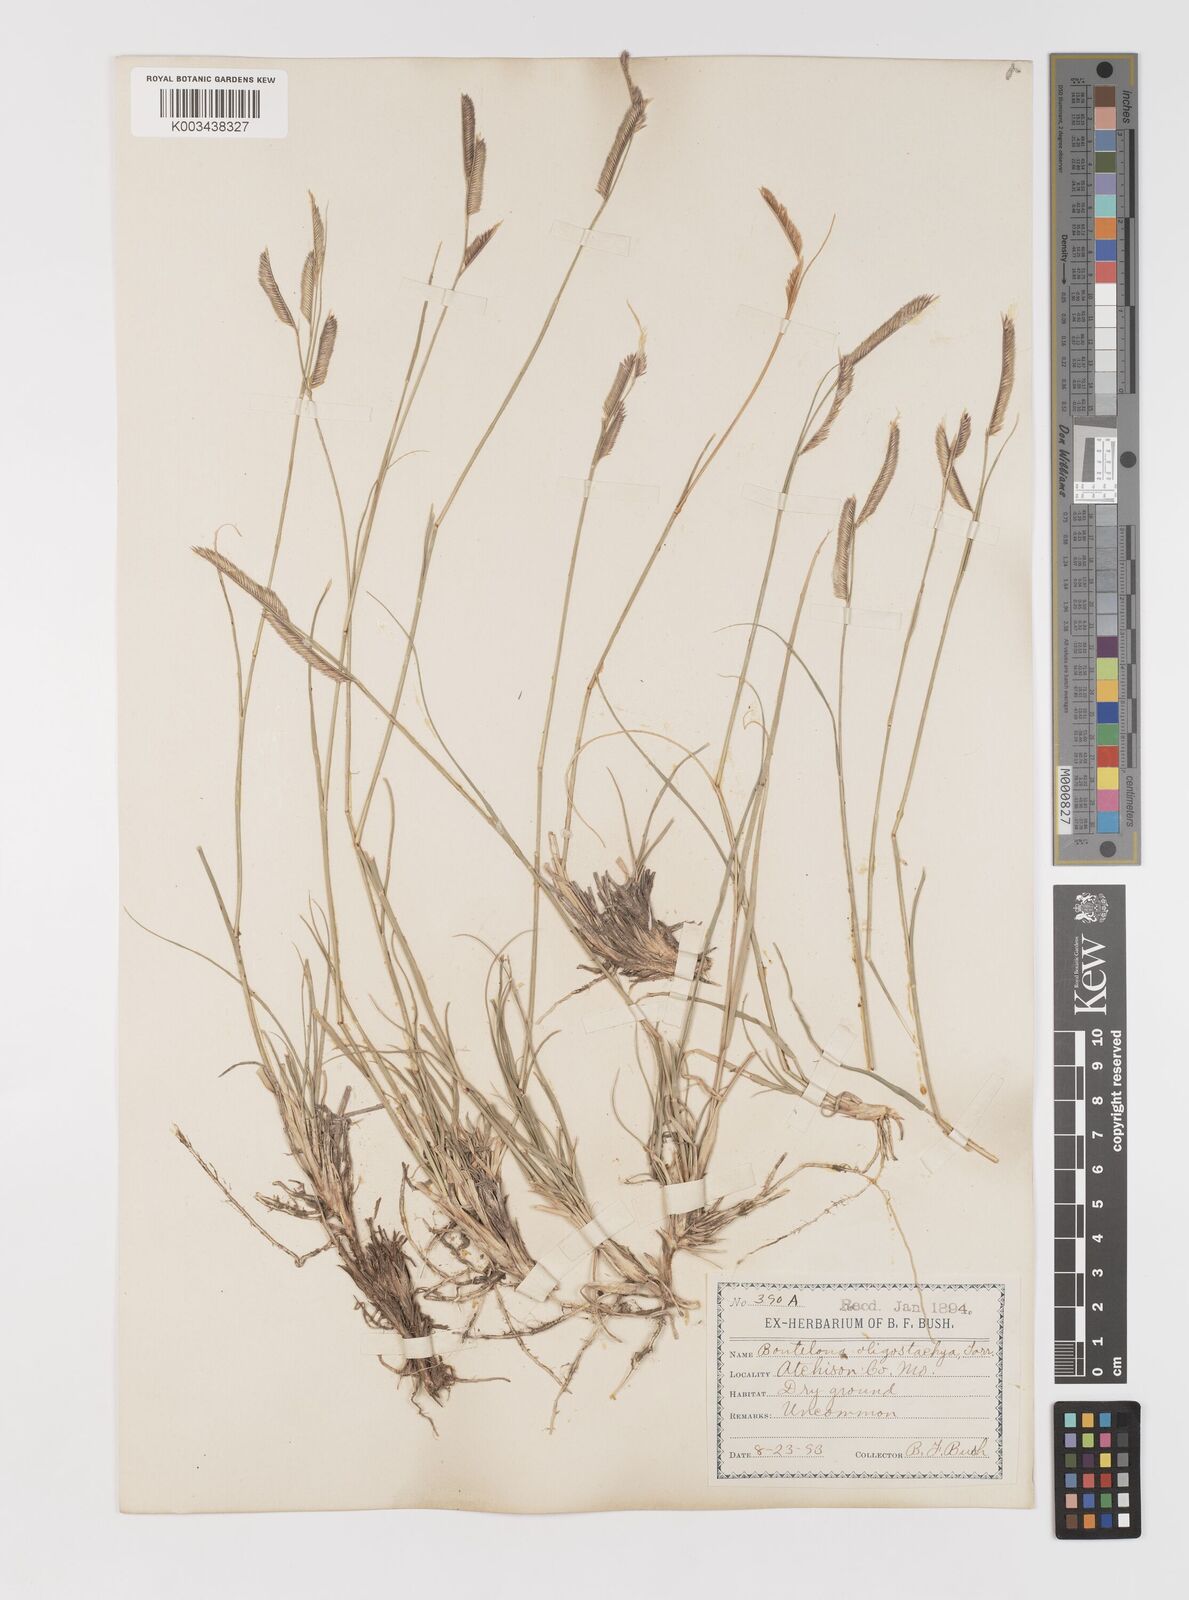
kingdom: Plantae
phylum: Tracheophyta
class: Liliopsida
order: Poales
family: Poaceae
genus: Bouteloua
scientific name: Bouteloua
